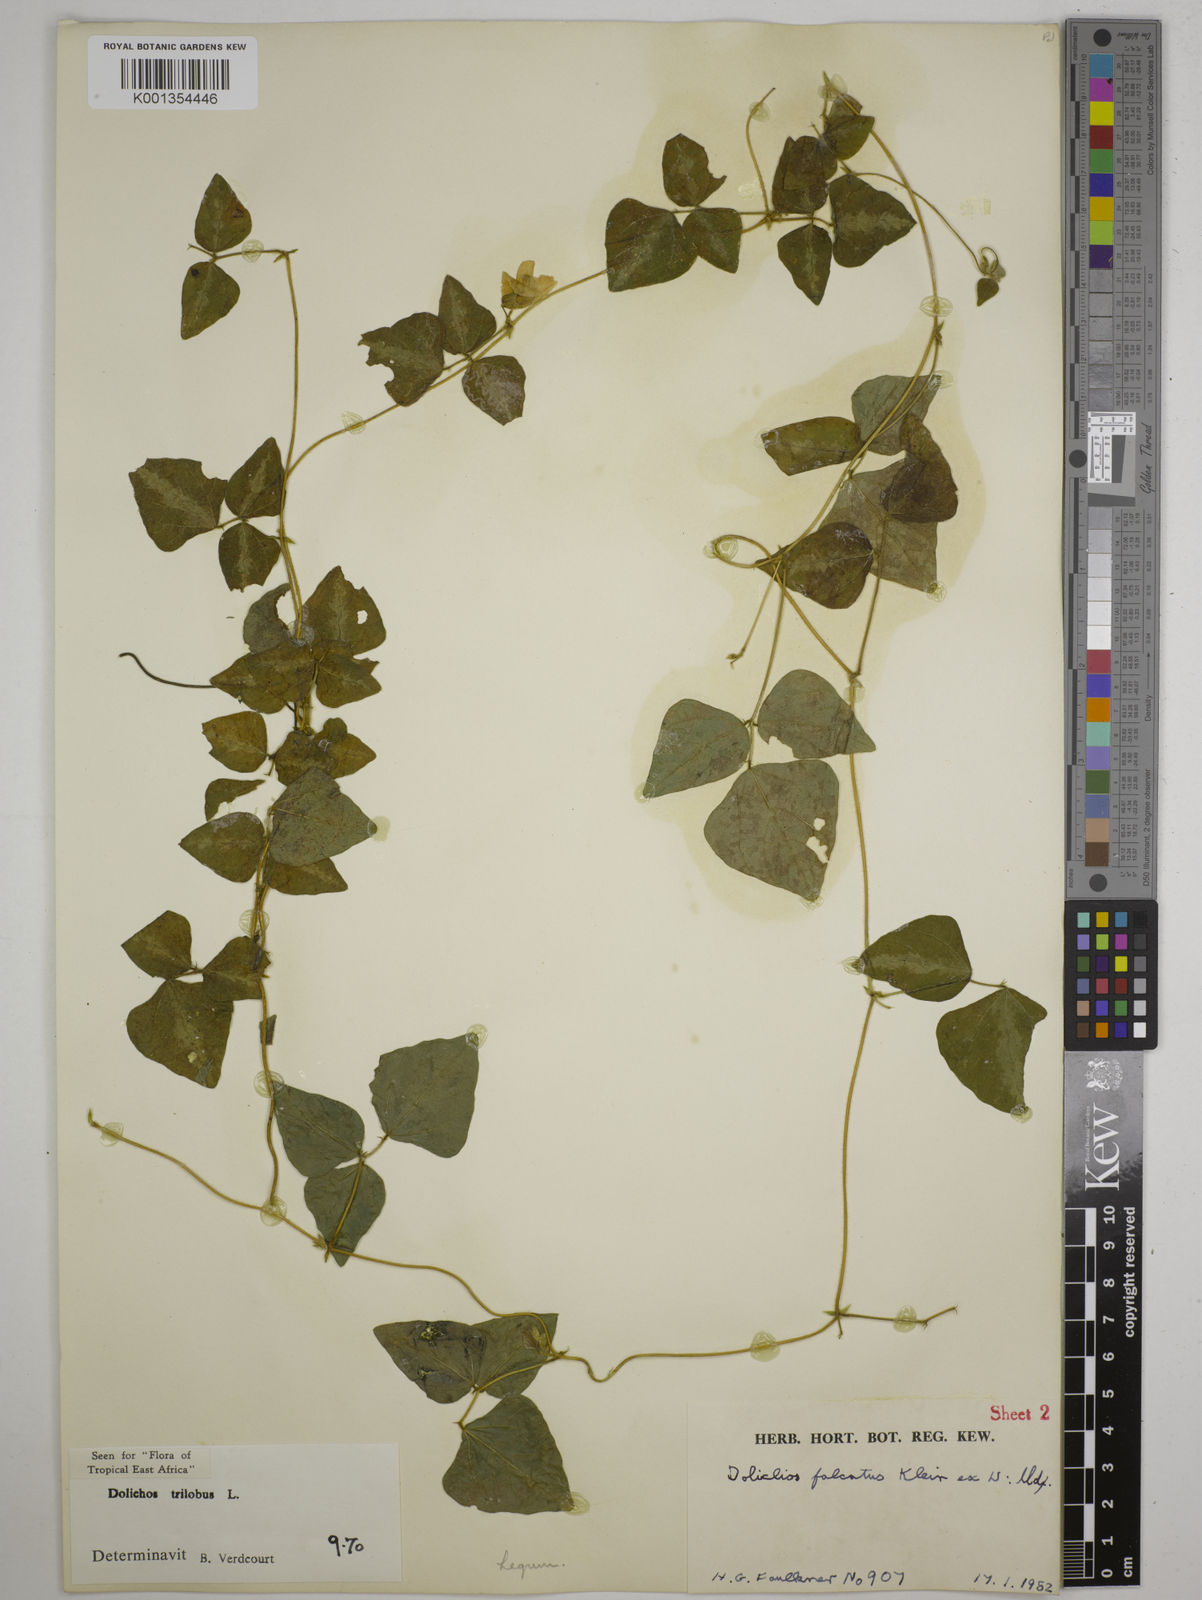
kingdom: Plantae
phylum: Tracheophyta
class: Magnoliopsida
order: Fabales
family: Fabaceae
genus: Dolichos
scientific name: Dolichos
